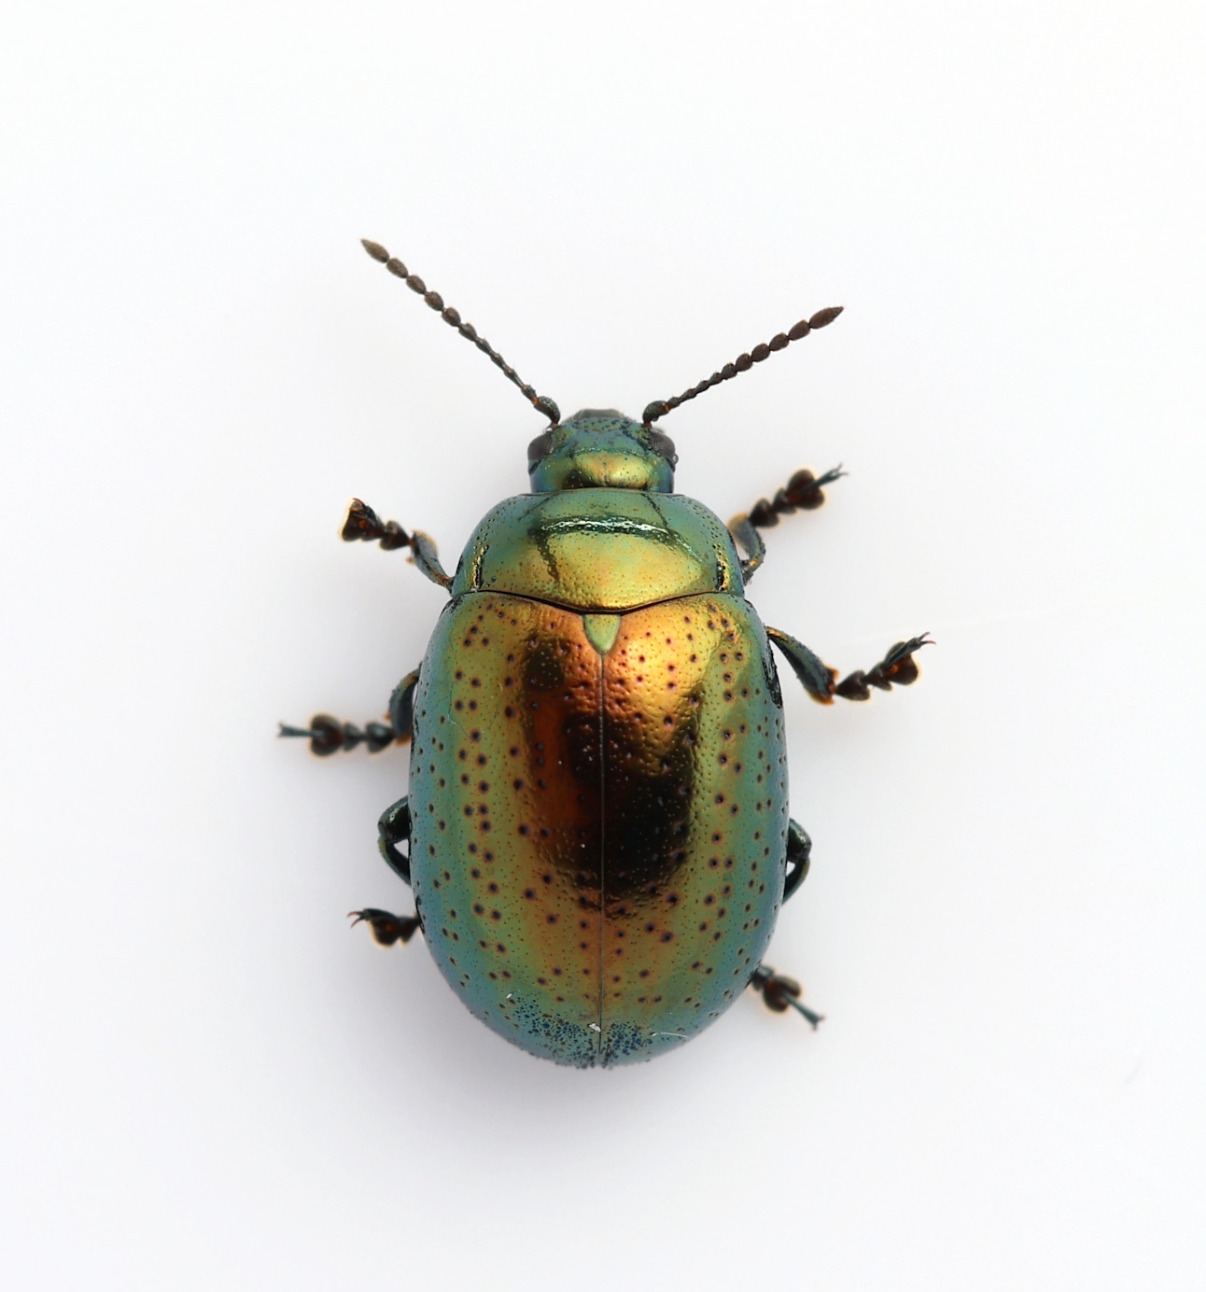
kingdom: Animalia
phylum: Arthropoda
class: Insecta
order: Coleoptera
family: Chrysomelidae
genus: Chrysolina
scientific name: Chrysolina hyperici
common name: Liden guldbille
